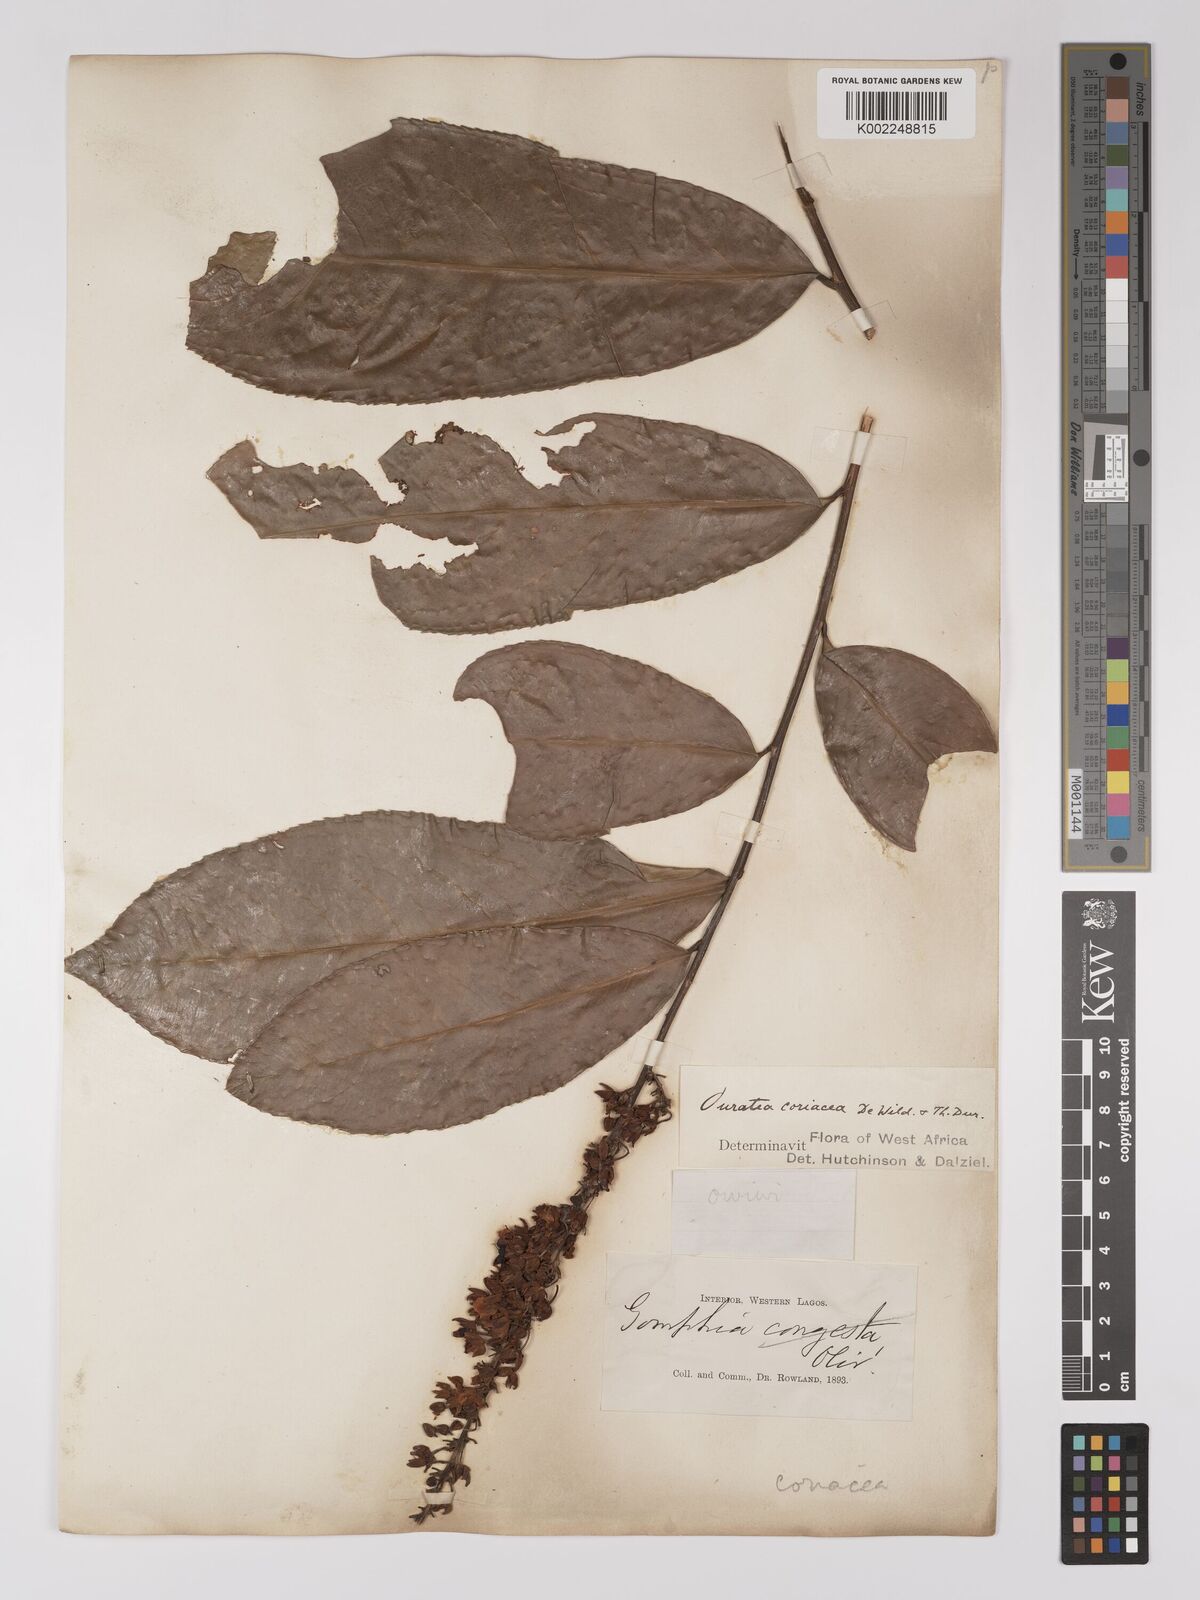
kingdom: Plantae
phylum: Tracheophyta
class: Magnoliopsida
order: Malpighiales
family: Ochnaceae
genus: Campylospermum
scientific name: Campylospermum flavum
